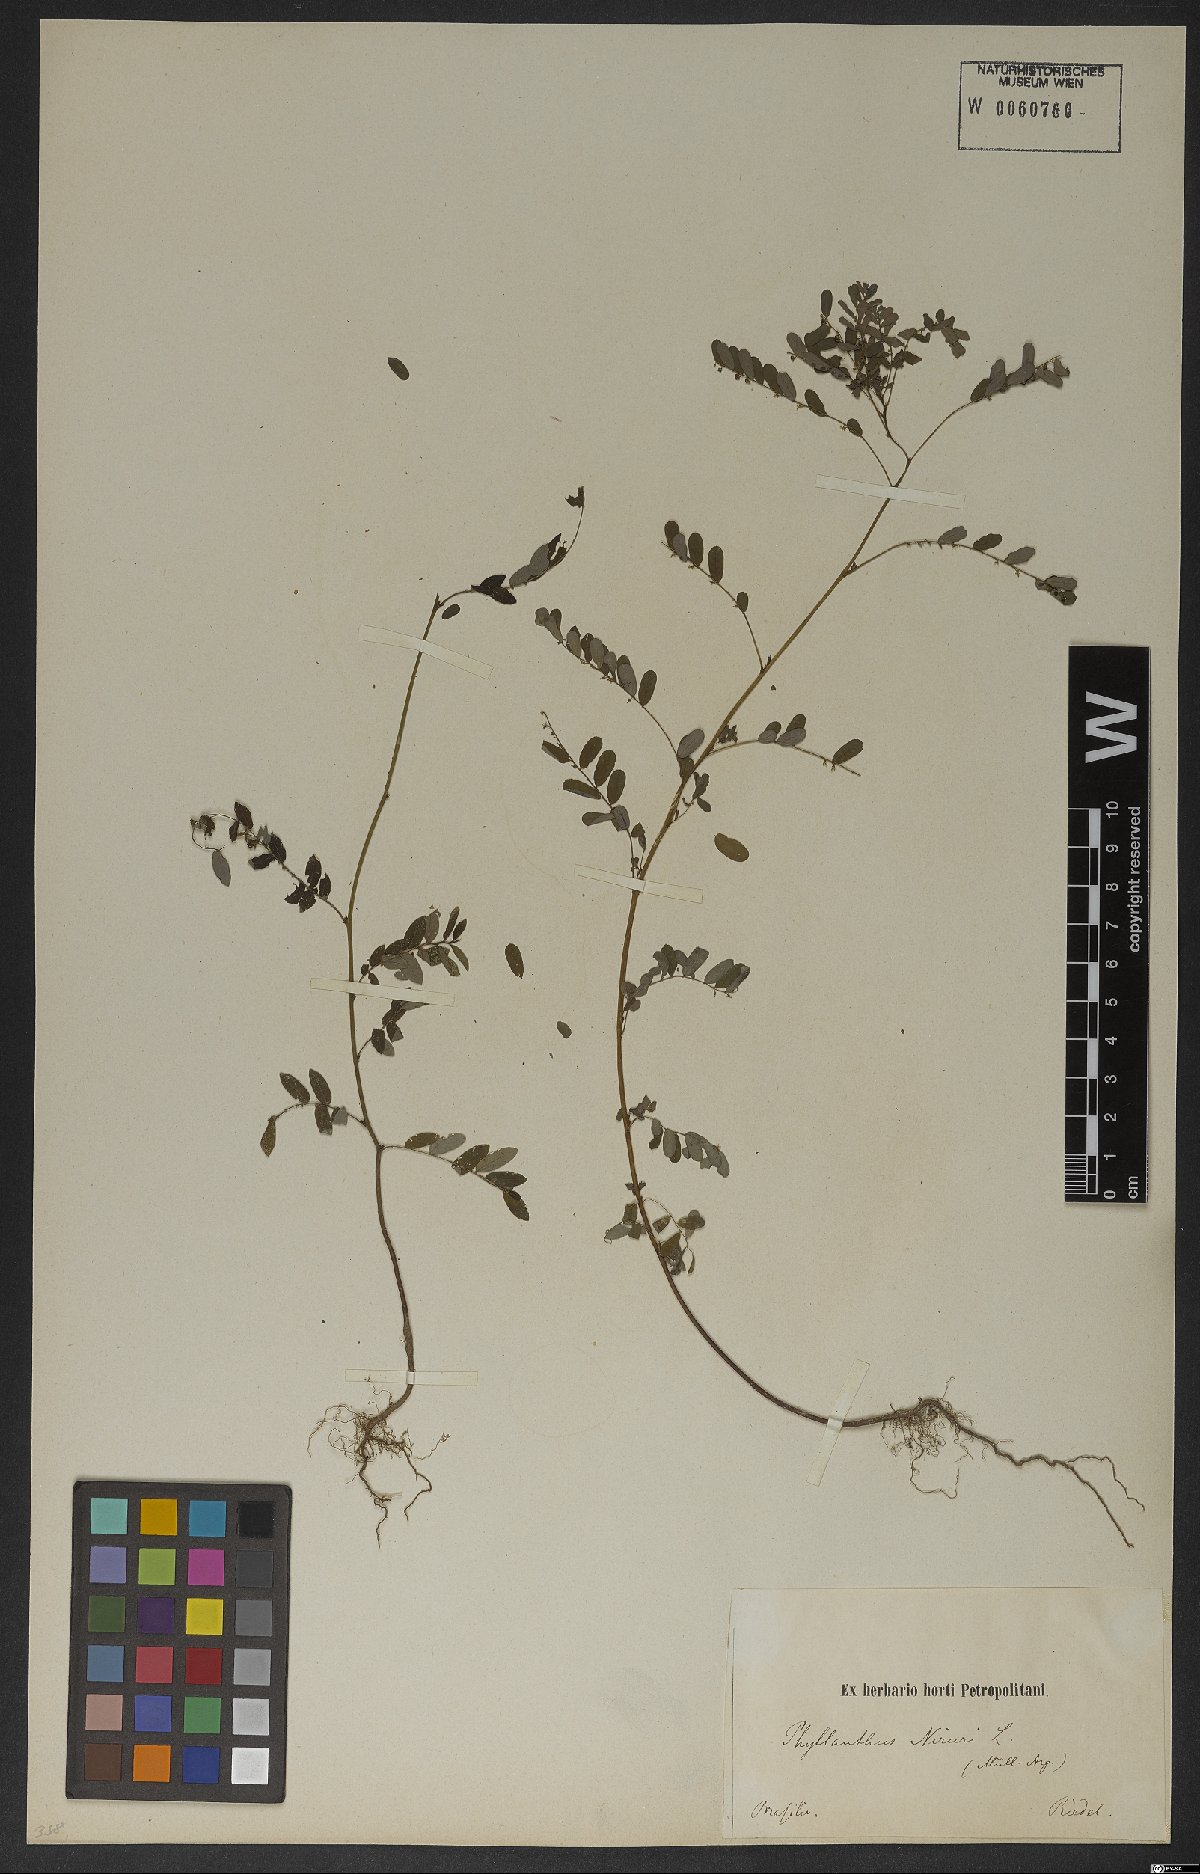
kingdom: Plantae
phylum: Tracheophyta
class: Magnoliopsida
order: Malpighiales
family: Phyllanthaceae
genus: Phyllanthus
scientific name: Phyllanthus
